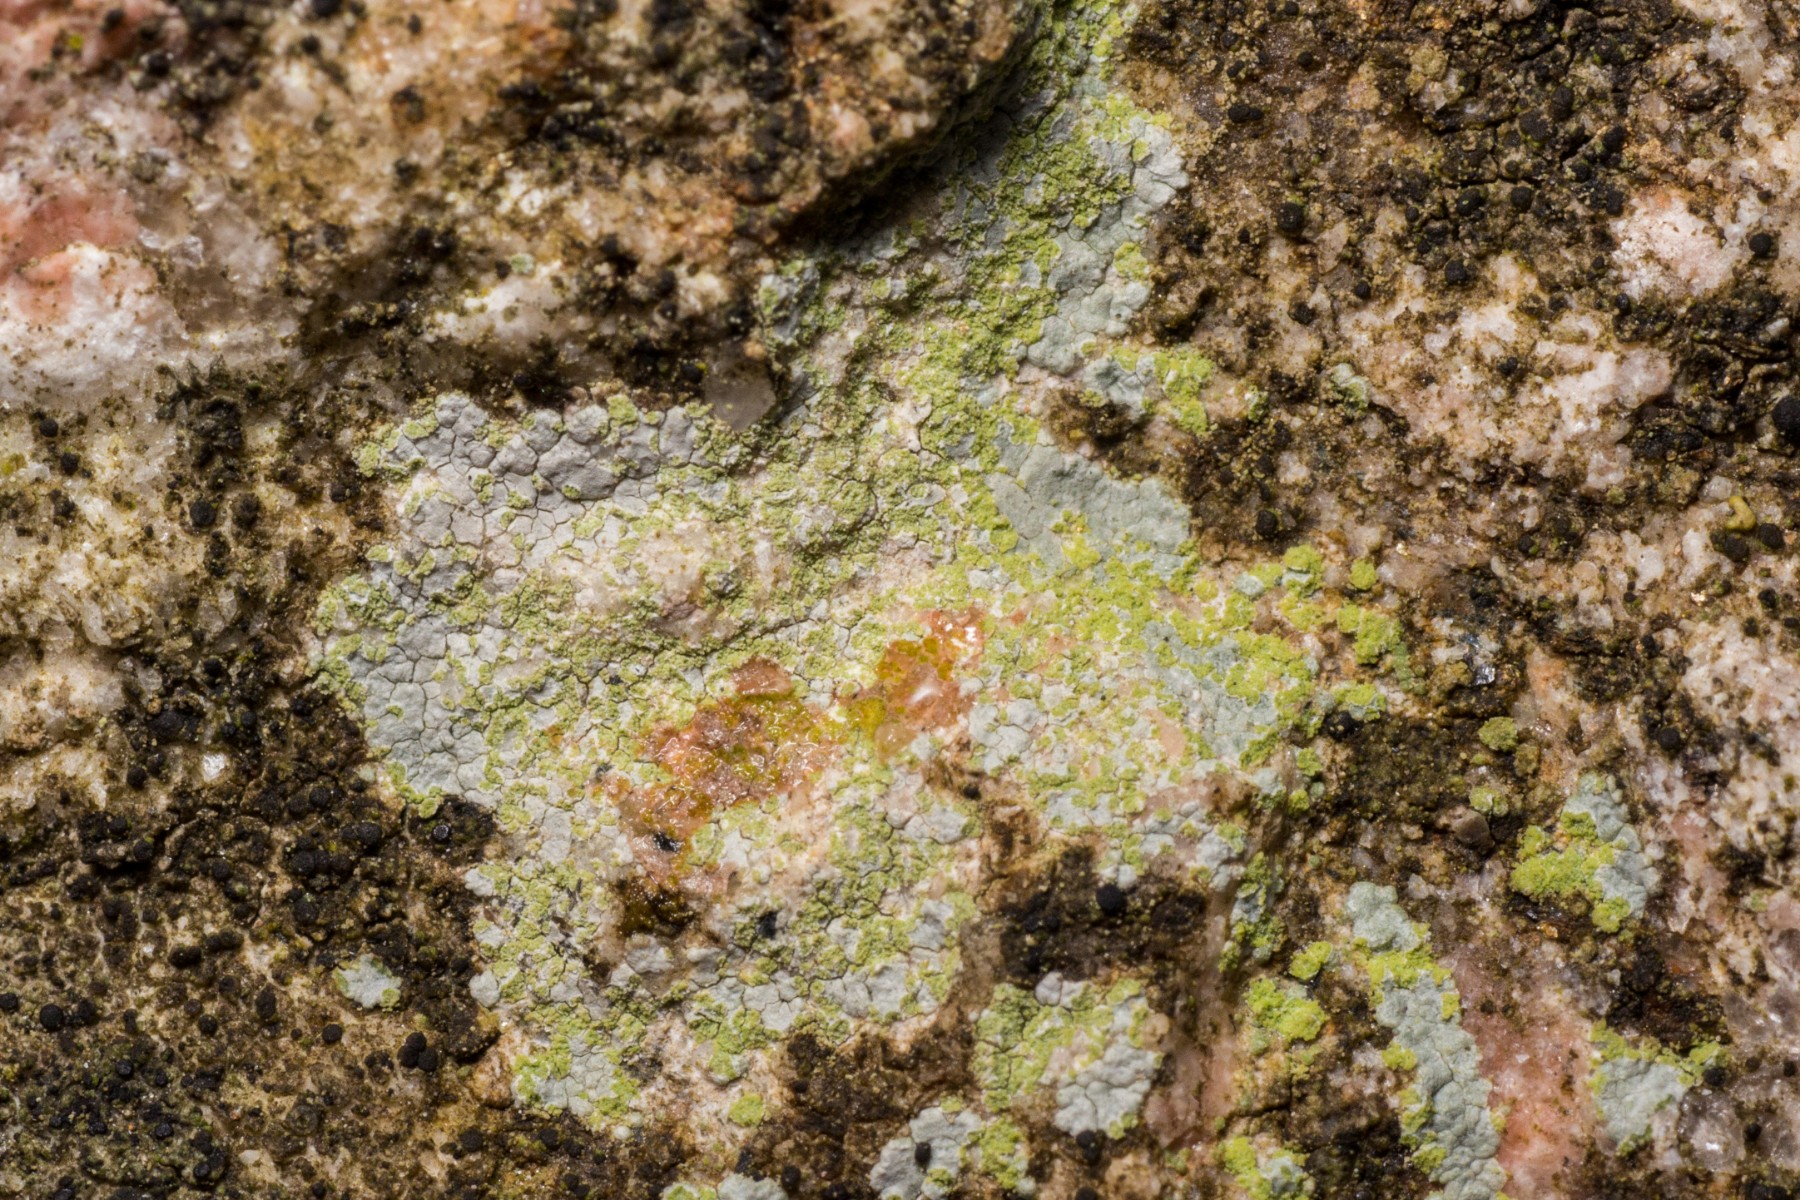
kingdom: Fungi
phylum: Ascomycota
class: Lecanoromycetes
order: Baeomycetales
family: Trapeliaceae
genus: Kleopowiella
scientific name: Kleopowiella placodioides
